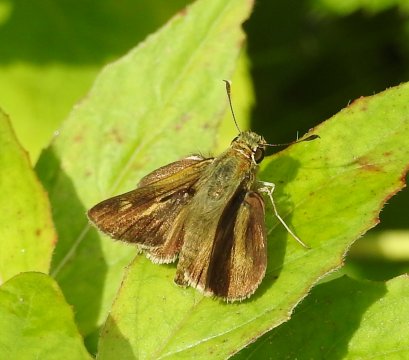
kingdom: Animalia
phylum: Arthropoda
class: Insecta
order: Lepidoptera
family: Hesperiidae
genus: Polites
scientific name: Polites egeremet
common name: Northern Broken-Dash
